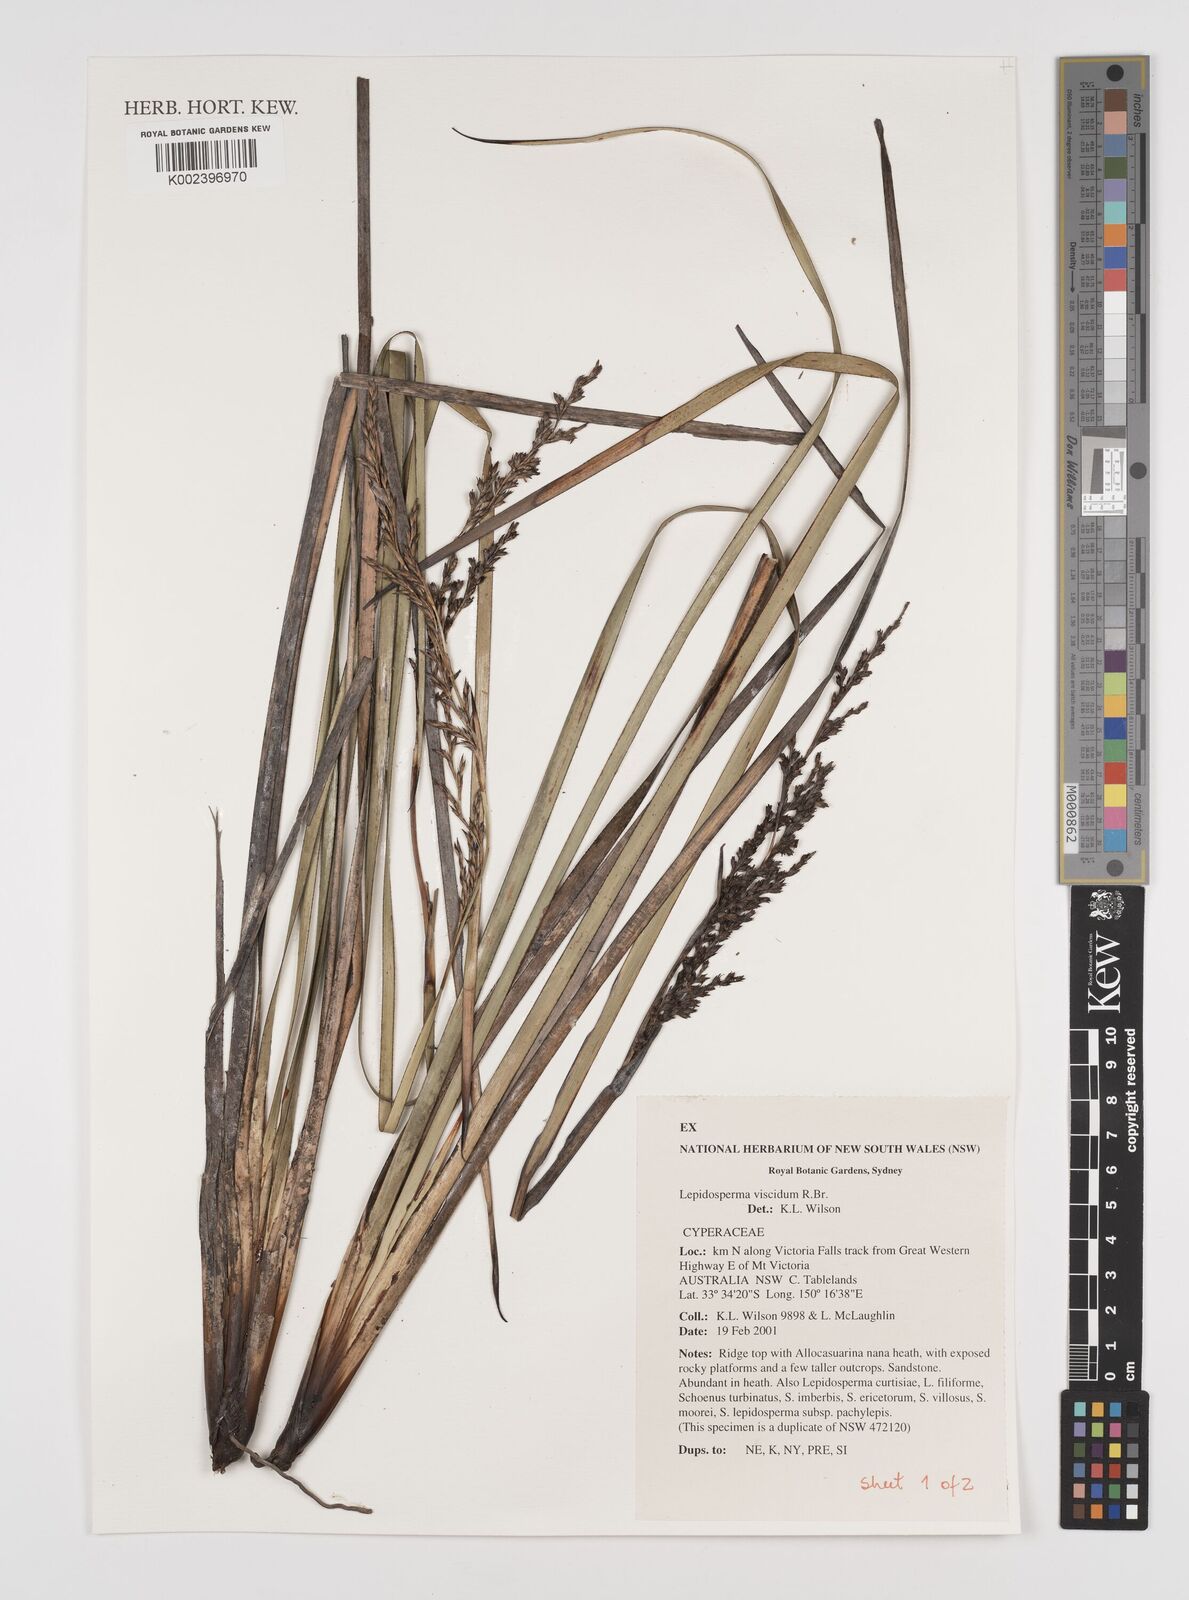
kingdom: Plantae
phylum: Tracheophyta
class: Liliopsida
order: Poales
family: Cyperaceae
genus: Lepidosperma
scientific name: Lepidosperma viscidum
